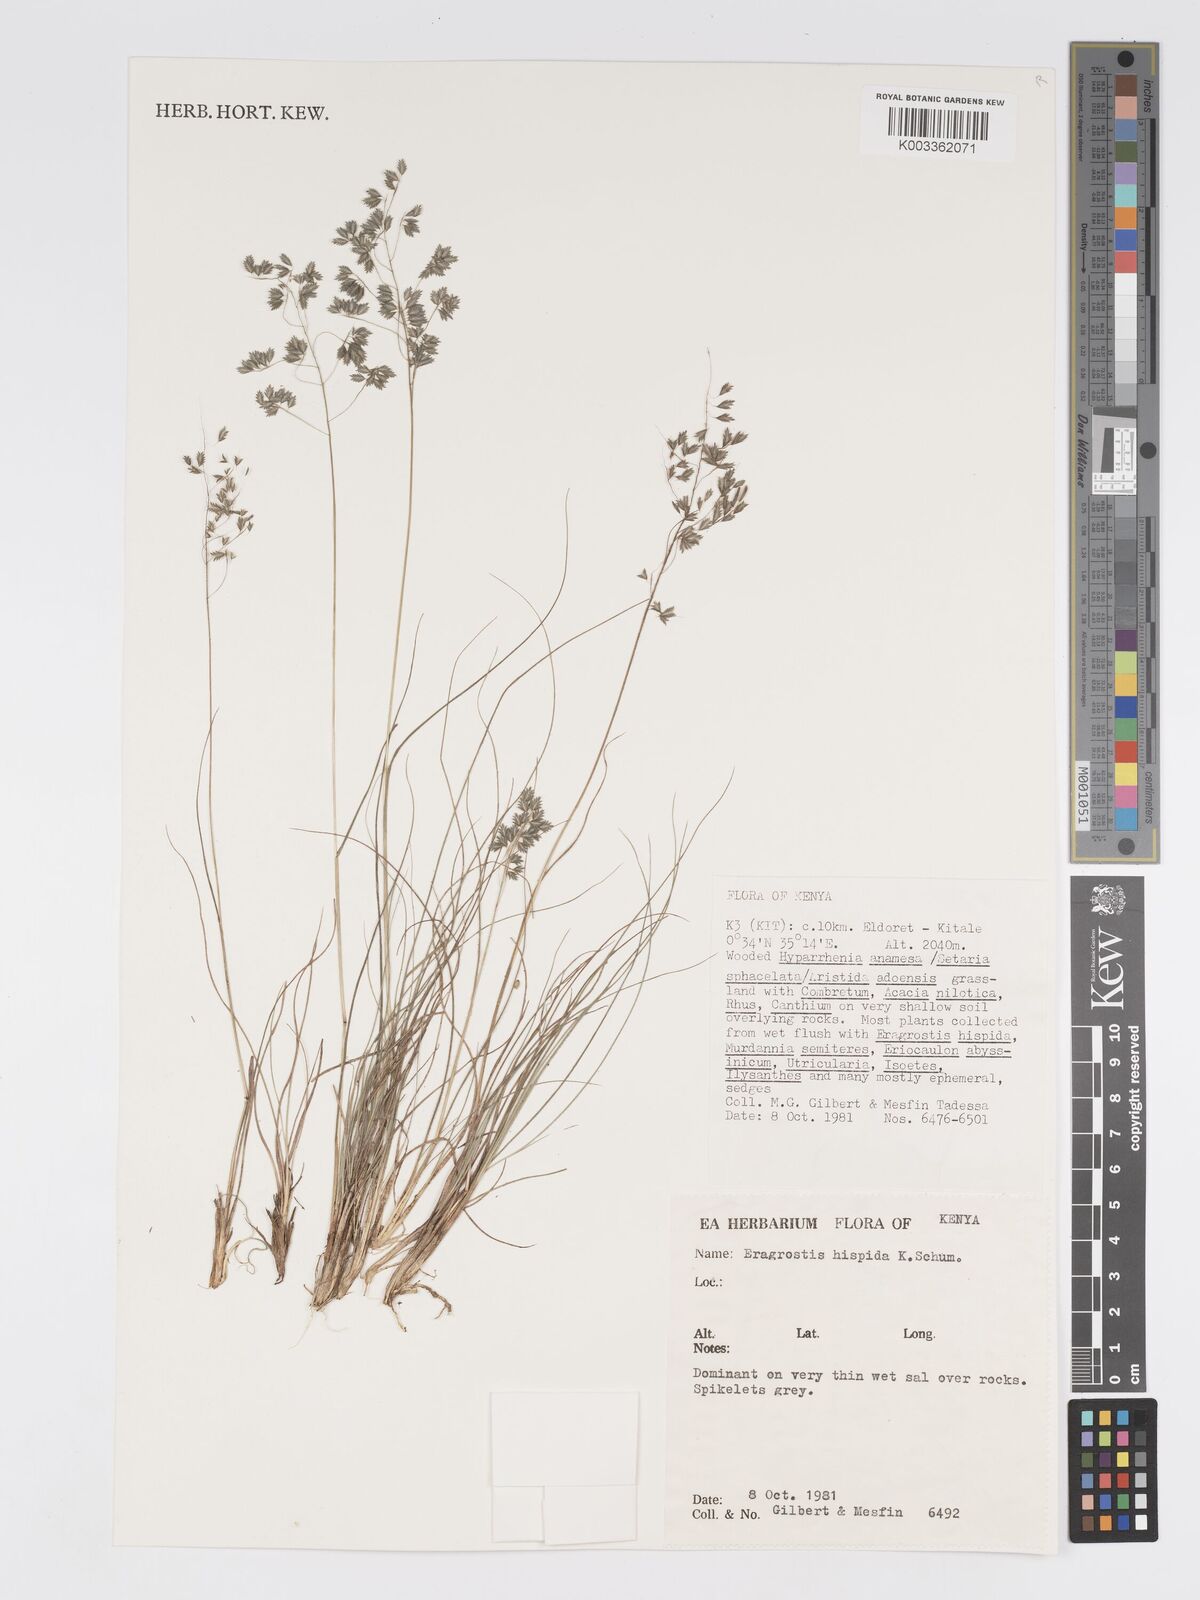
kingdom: Plantae
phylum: Tracheophyta
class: Liliopsida
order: Poales
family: Poaceae
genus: Eragrostis
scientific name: Eragrostis hispida
